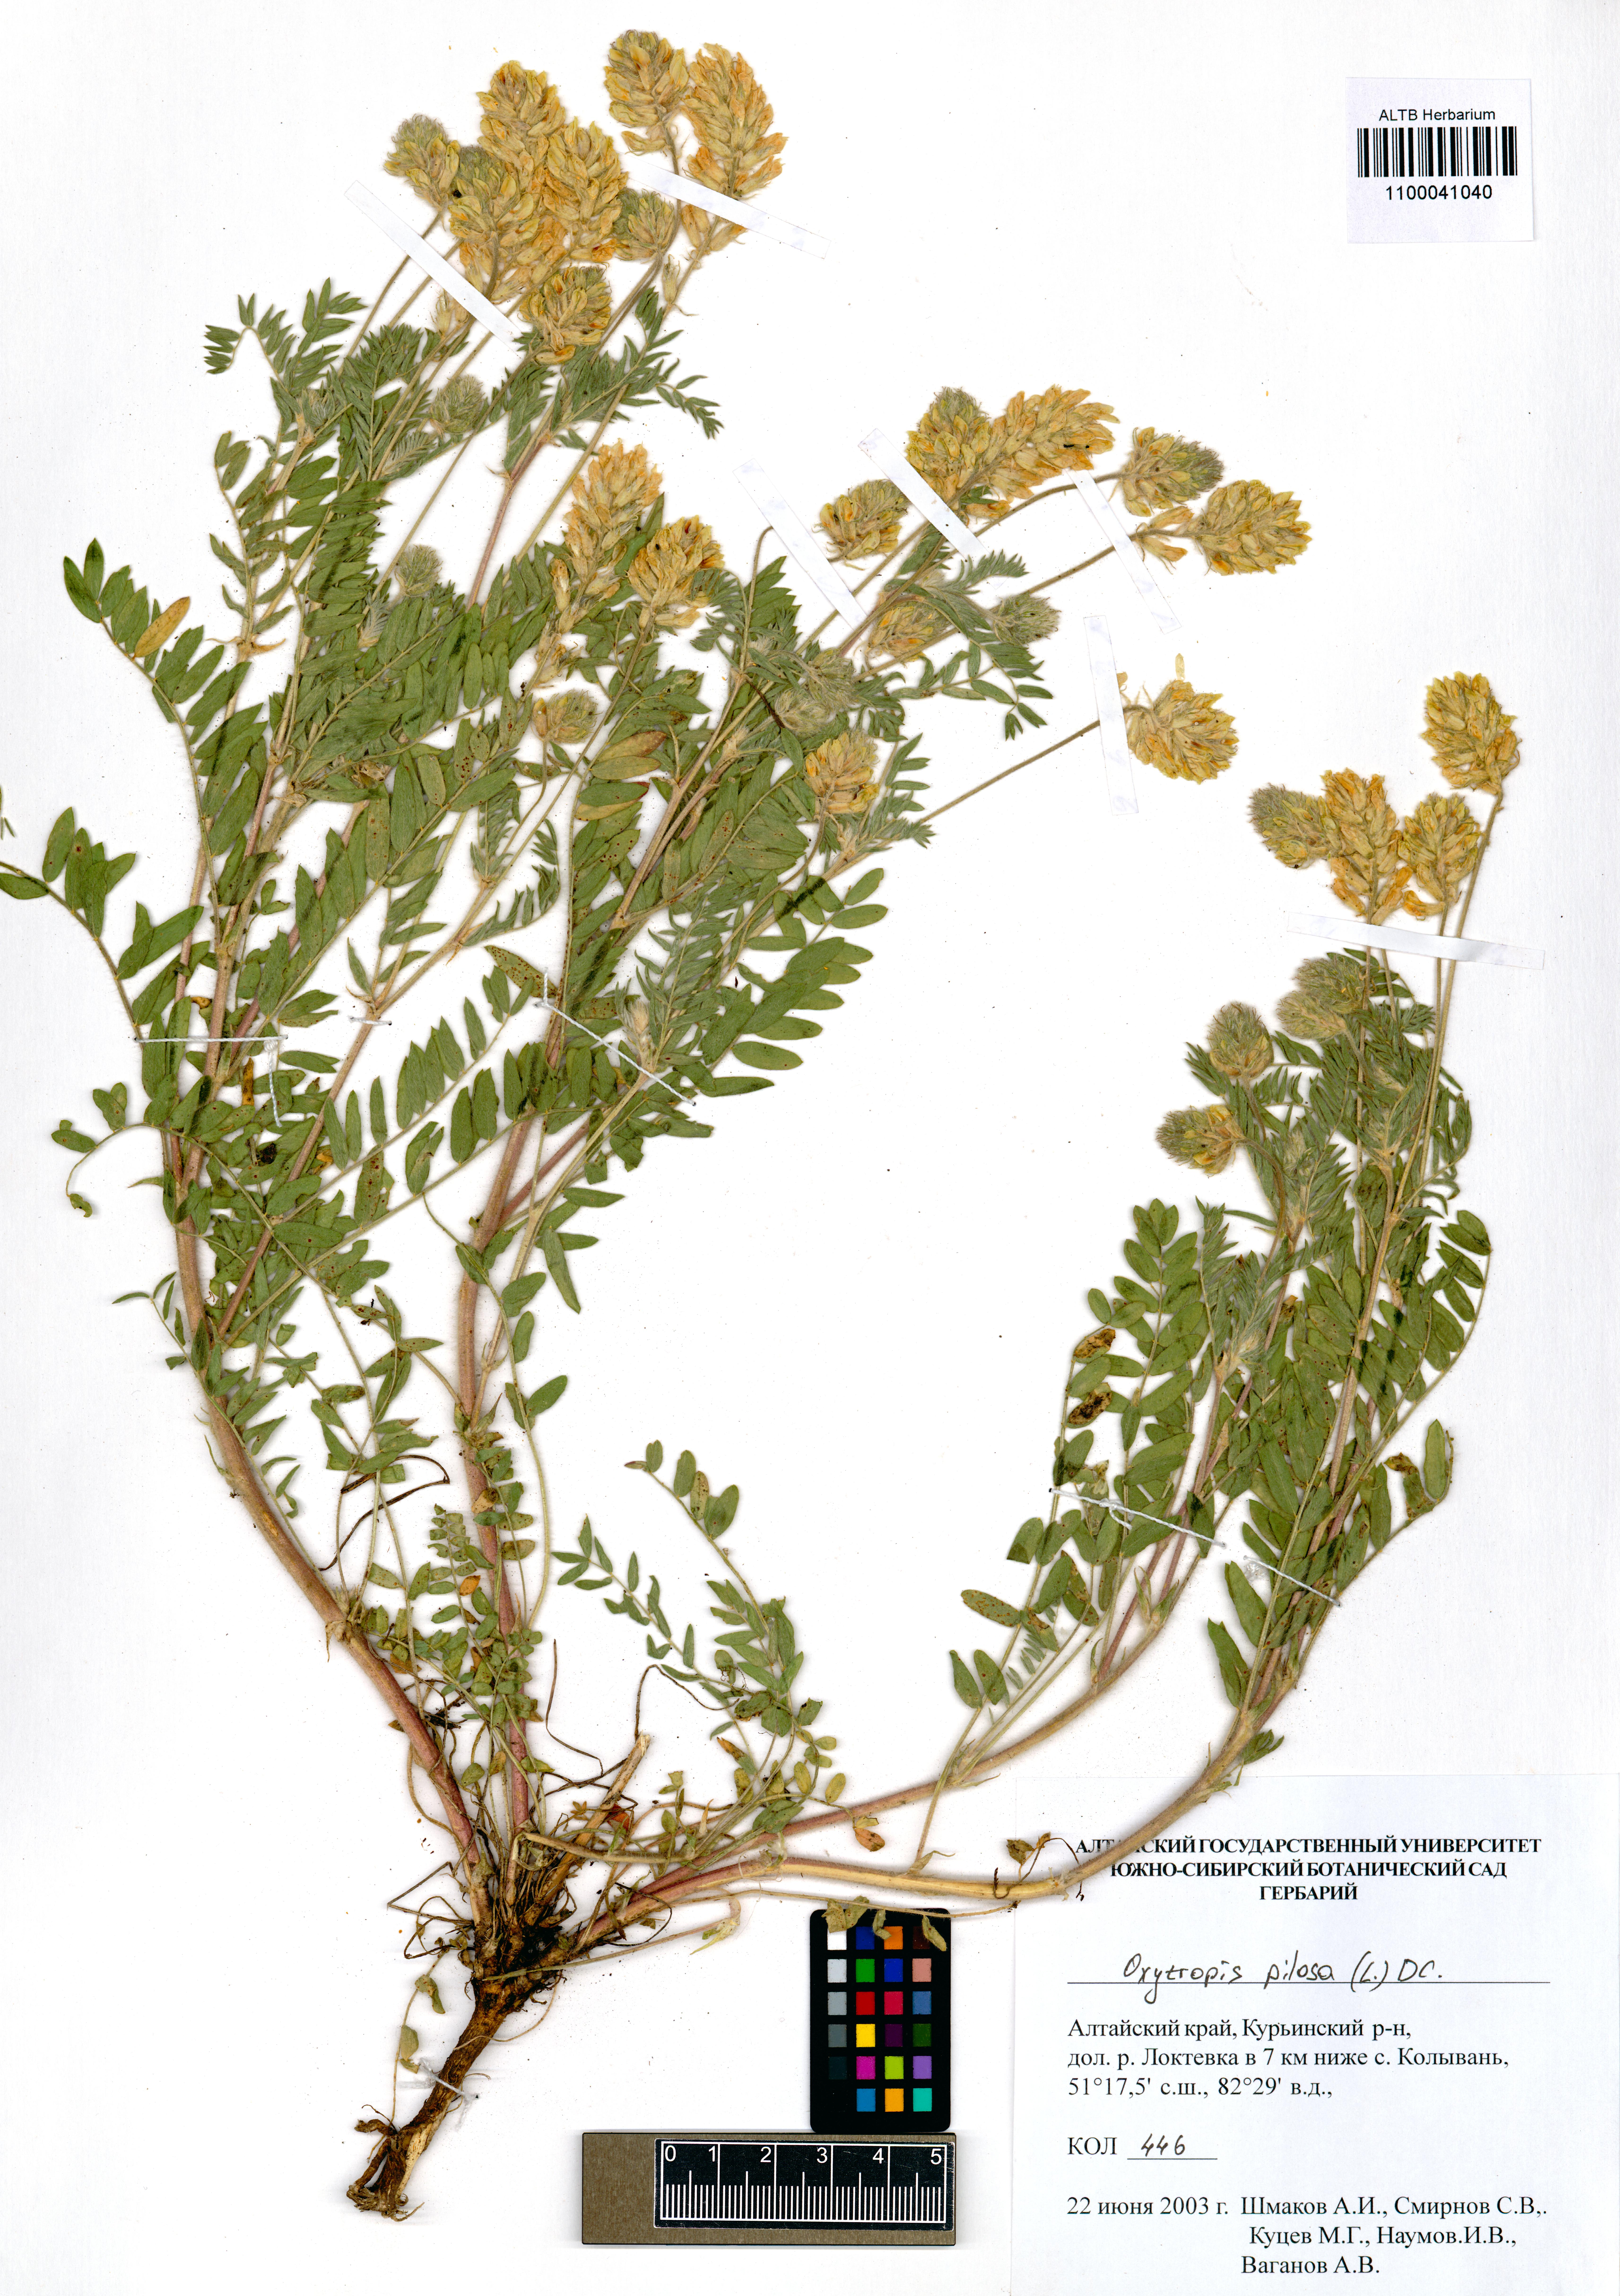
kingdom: Plantae
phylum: Tracheophyta
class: Magnoliopsida
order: Fabales
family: Fabaceae
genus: Oxytropis
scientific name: Oxytropis pilosa
